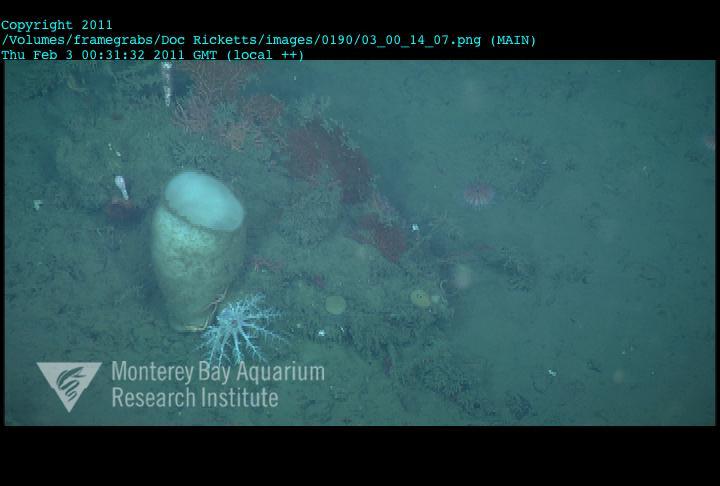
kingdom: Animalia
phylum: Porifera
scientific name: Porifera
